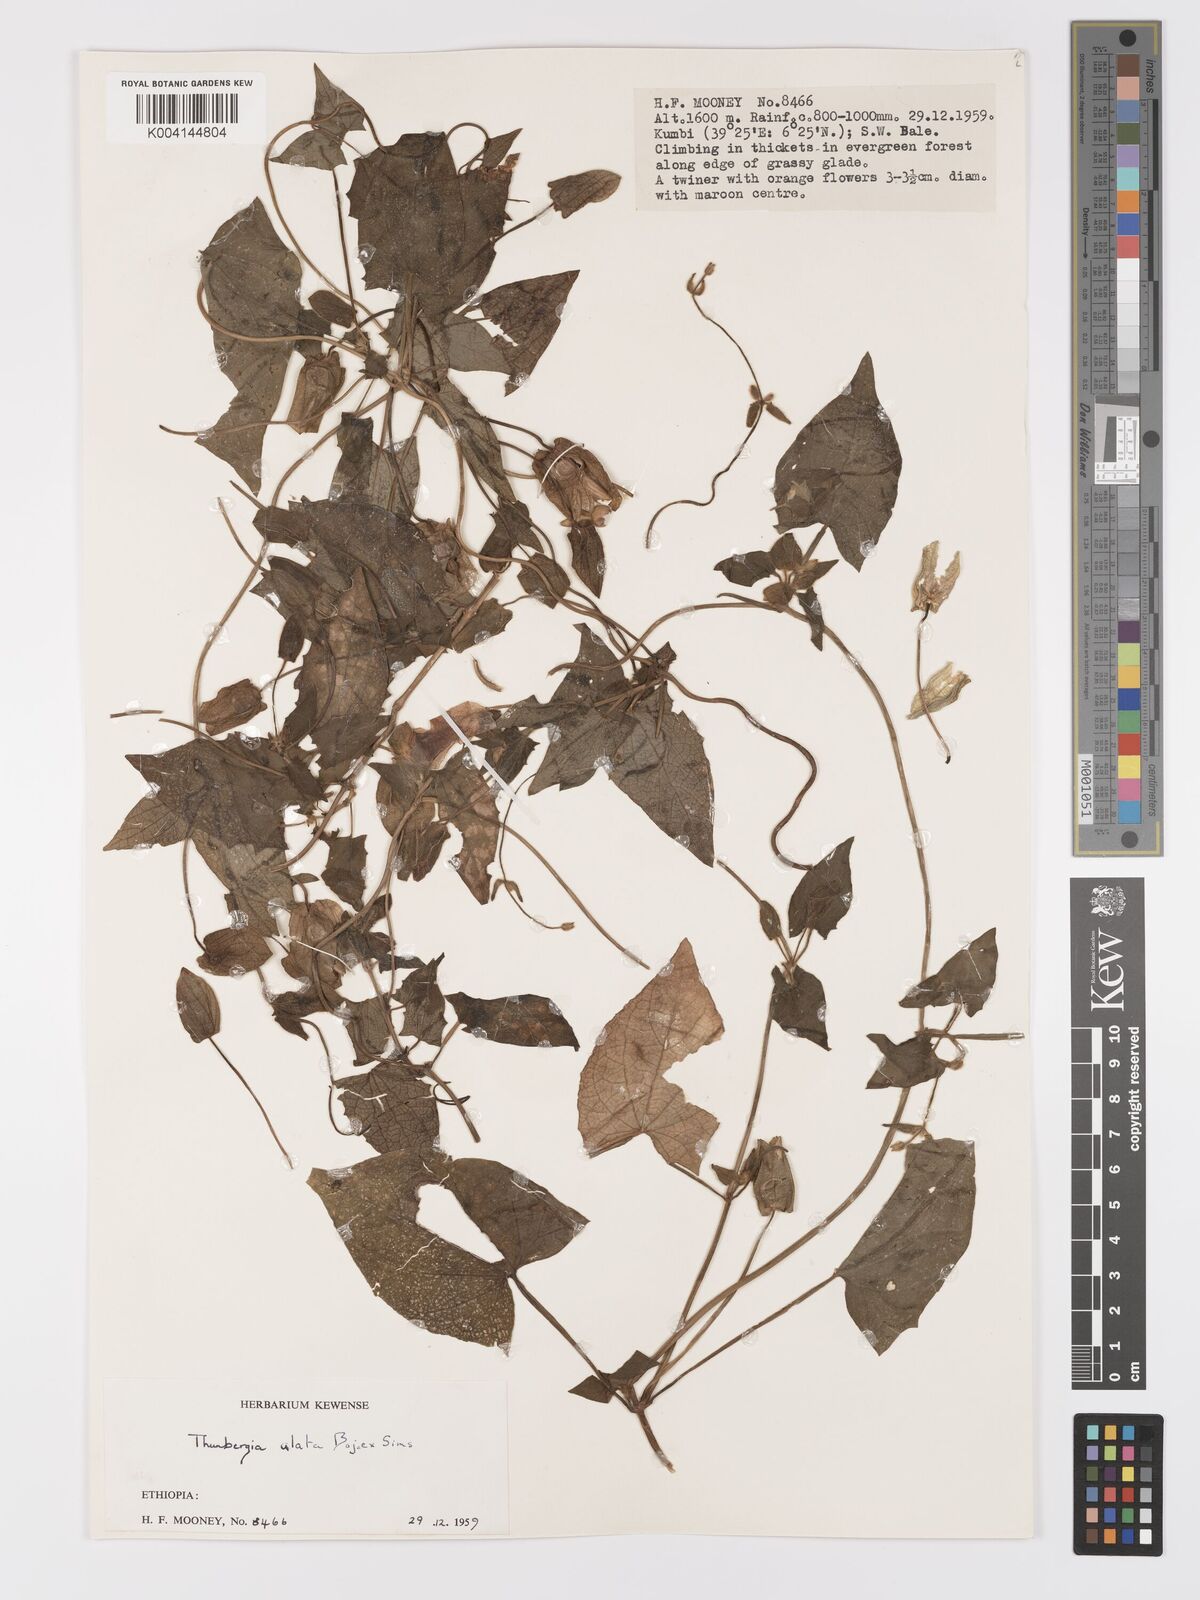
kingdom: Plantae
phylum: Tracheophyta
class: Magnoliopsida
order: Lamiales
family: Acanthaceae
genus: Thunbergia
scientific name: Thunbergia alata
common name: Blackeyed susan vine
